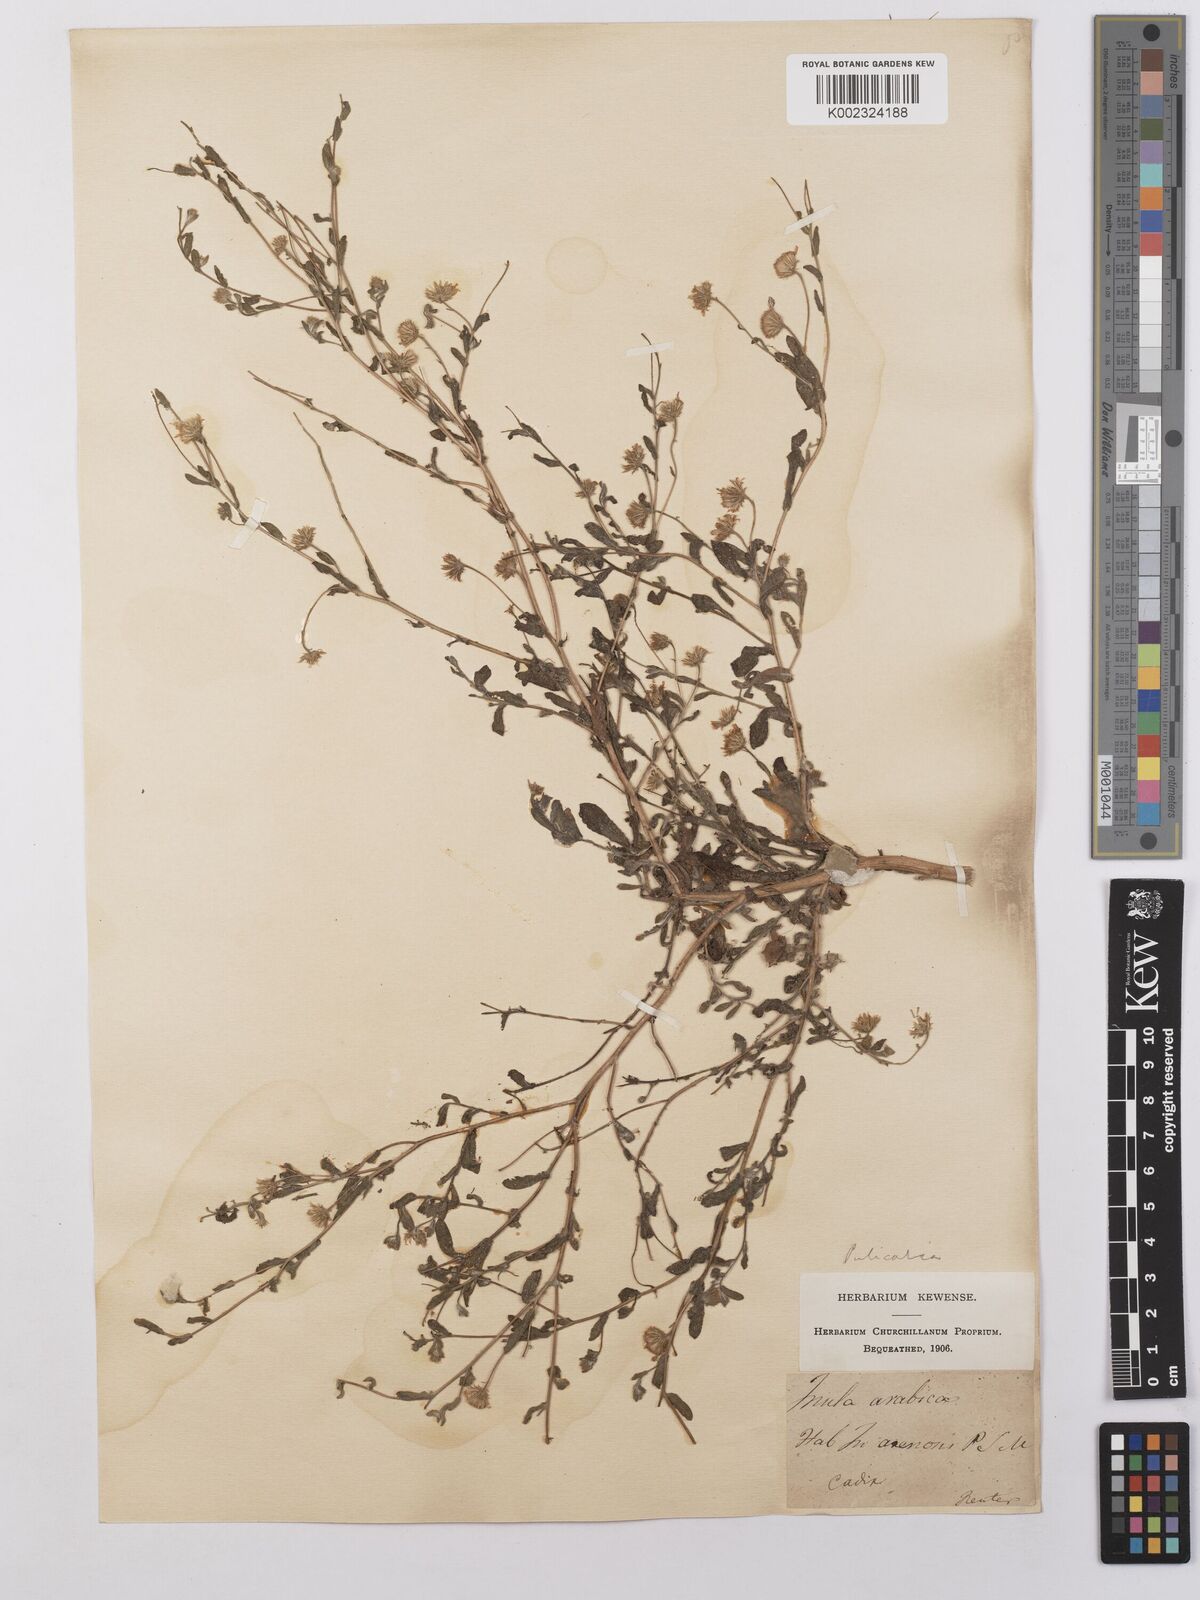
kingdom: Plantae
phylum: Tracheophyta
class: Magnoliopsida
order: Asterales
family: Asteraceae
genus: Pulicaria
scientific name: Pulicaria arabica
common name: Ladies' false fleabane
